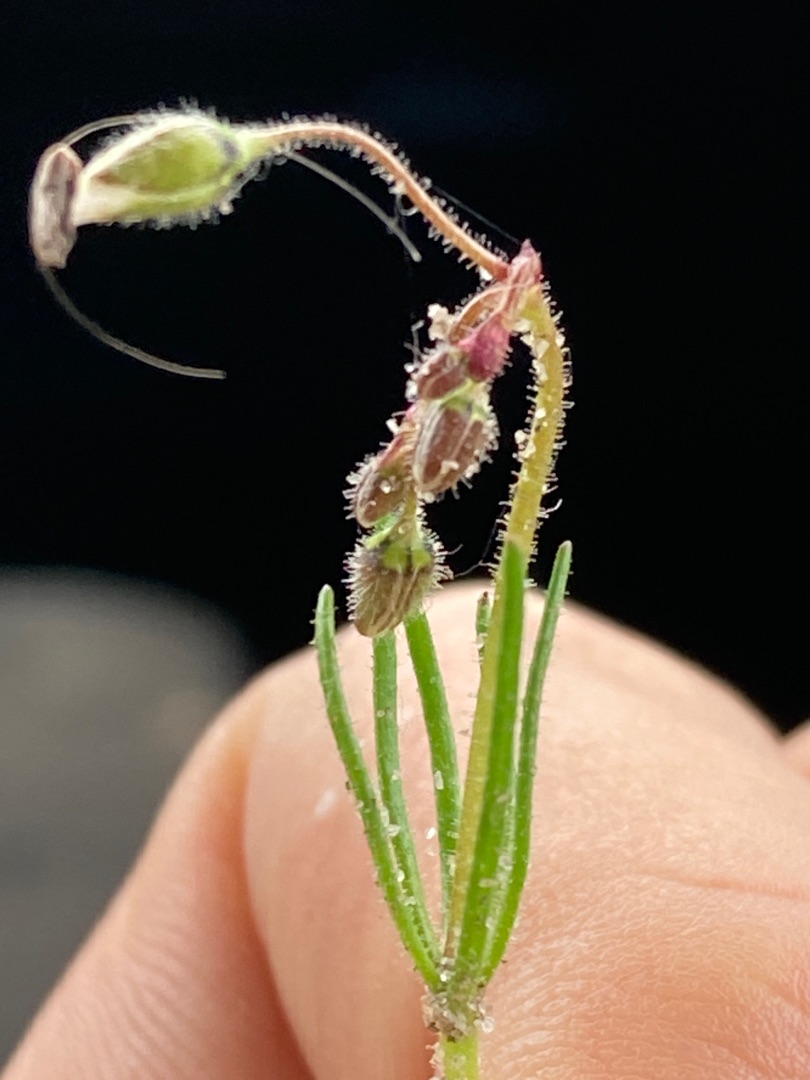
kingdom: Plantae
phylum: Tracheophyta
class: Magnoliopsida
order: Caryophyllales
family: Caryophyllaceae
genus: Spergula
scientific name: Spergula arvensis
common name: Almindelig spergel
